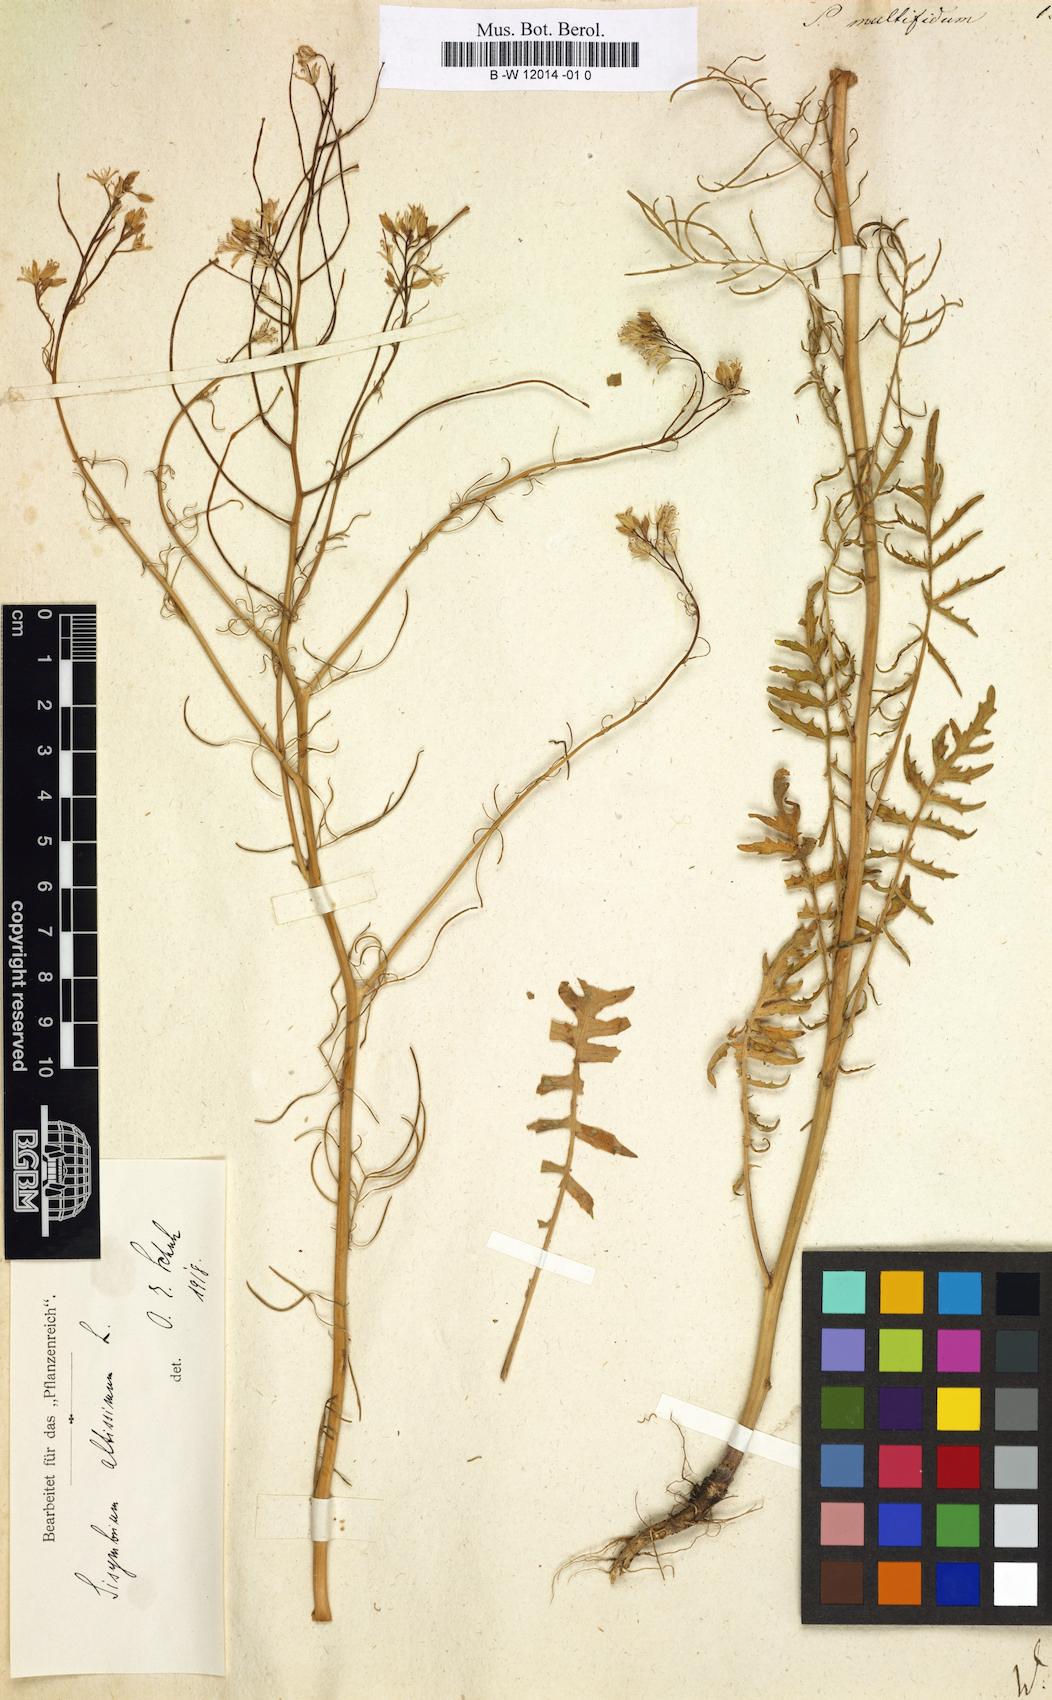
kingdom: Plantae
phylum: Tracheophyta
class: Magnoliopsida
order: Brassicales
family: Brassicaceae
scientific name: Brassicaceae
